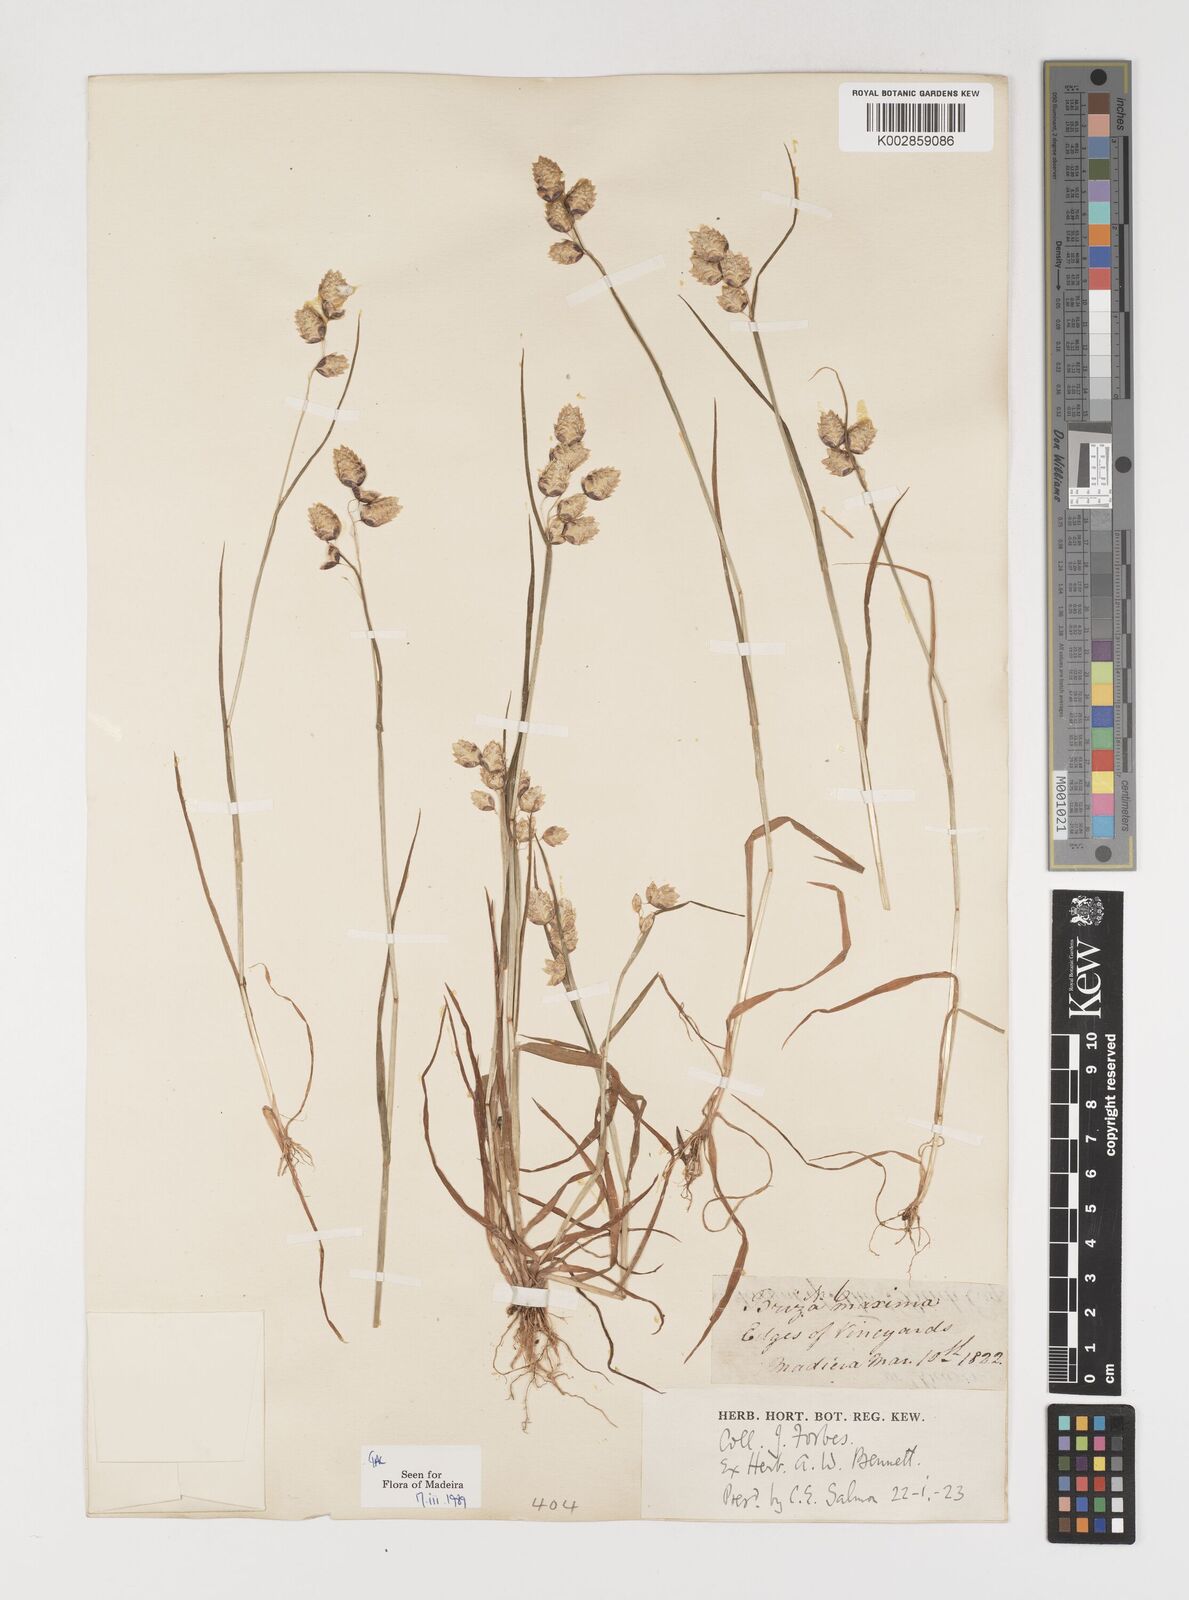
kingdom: Plantae
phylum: Tracheophyta
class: Liliopsida
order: Poales
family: Poaceae
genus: Briza
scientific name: Briza maxima
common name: Big quakinggrass
